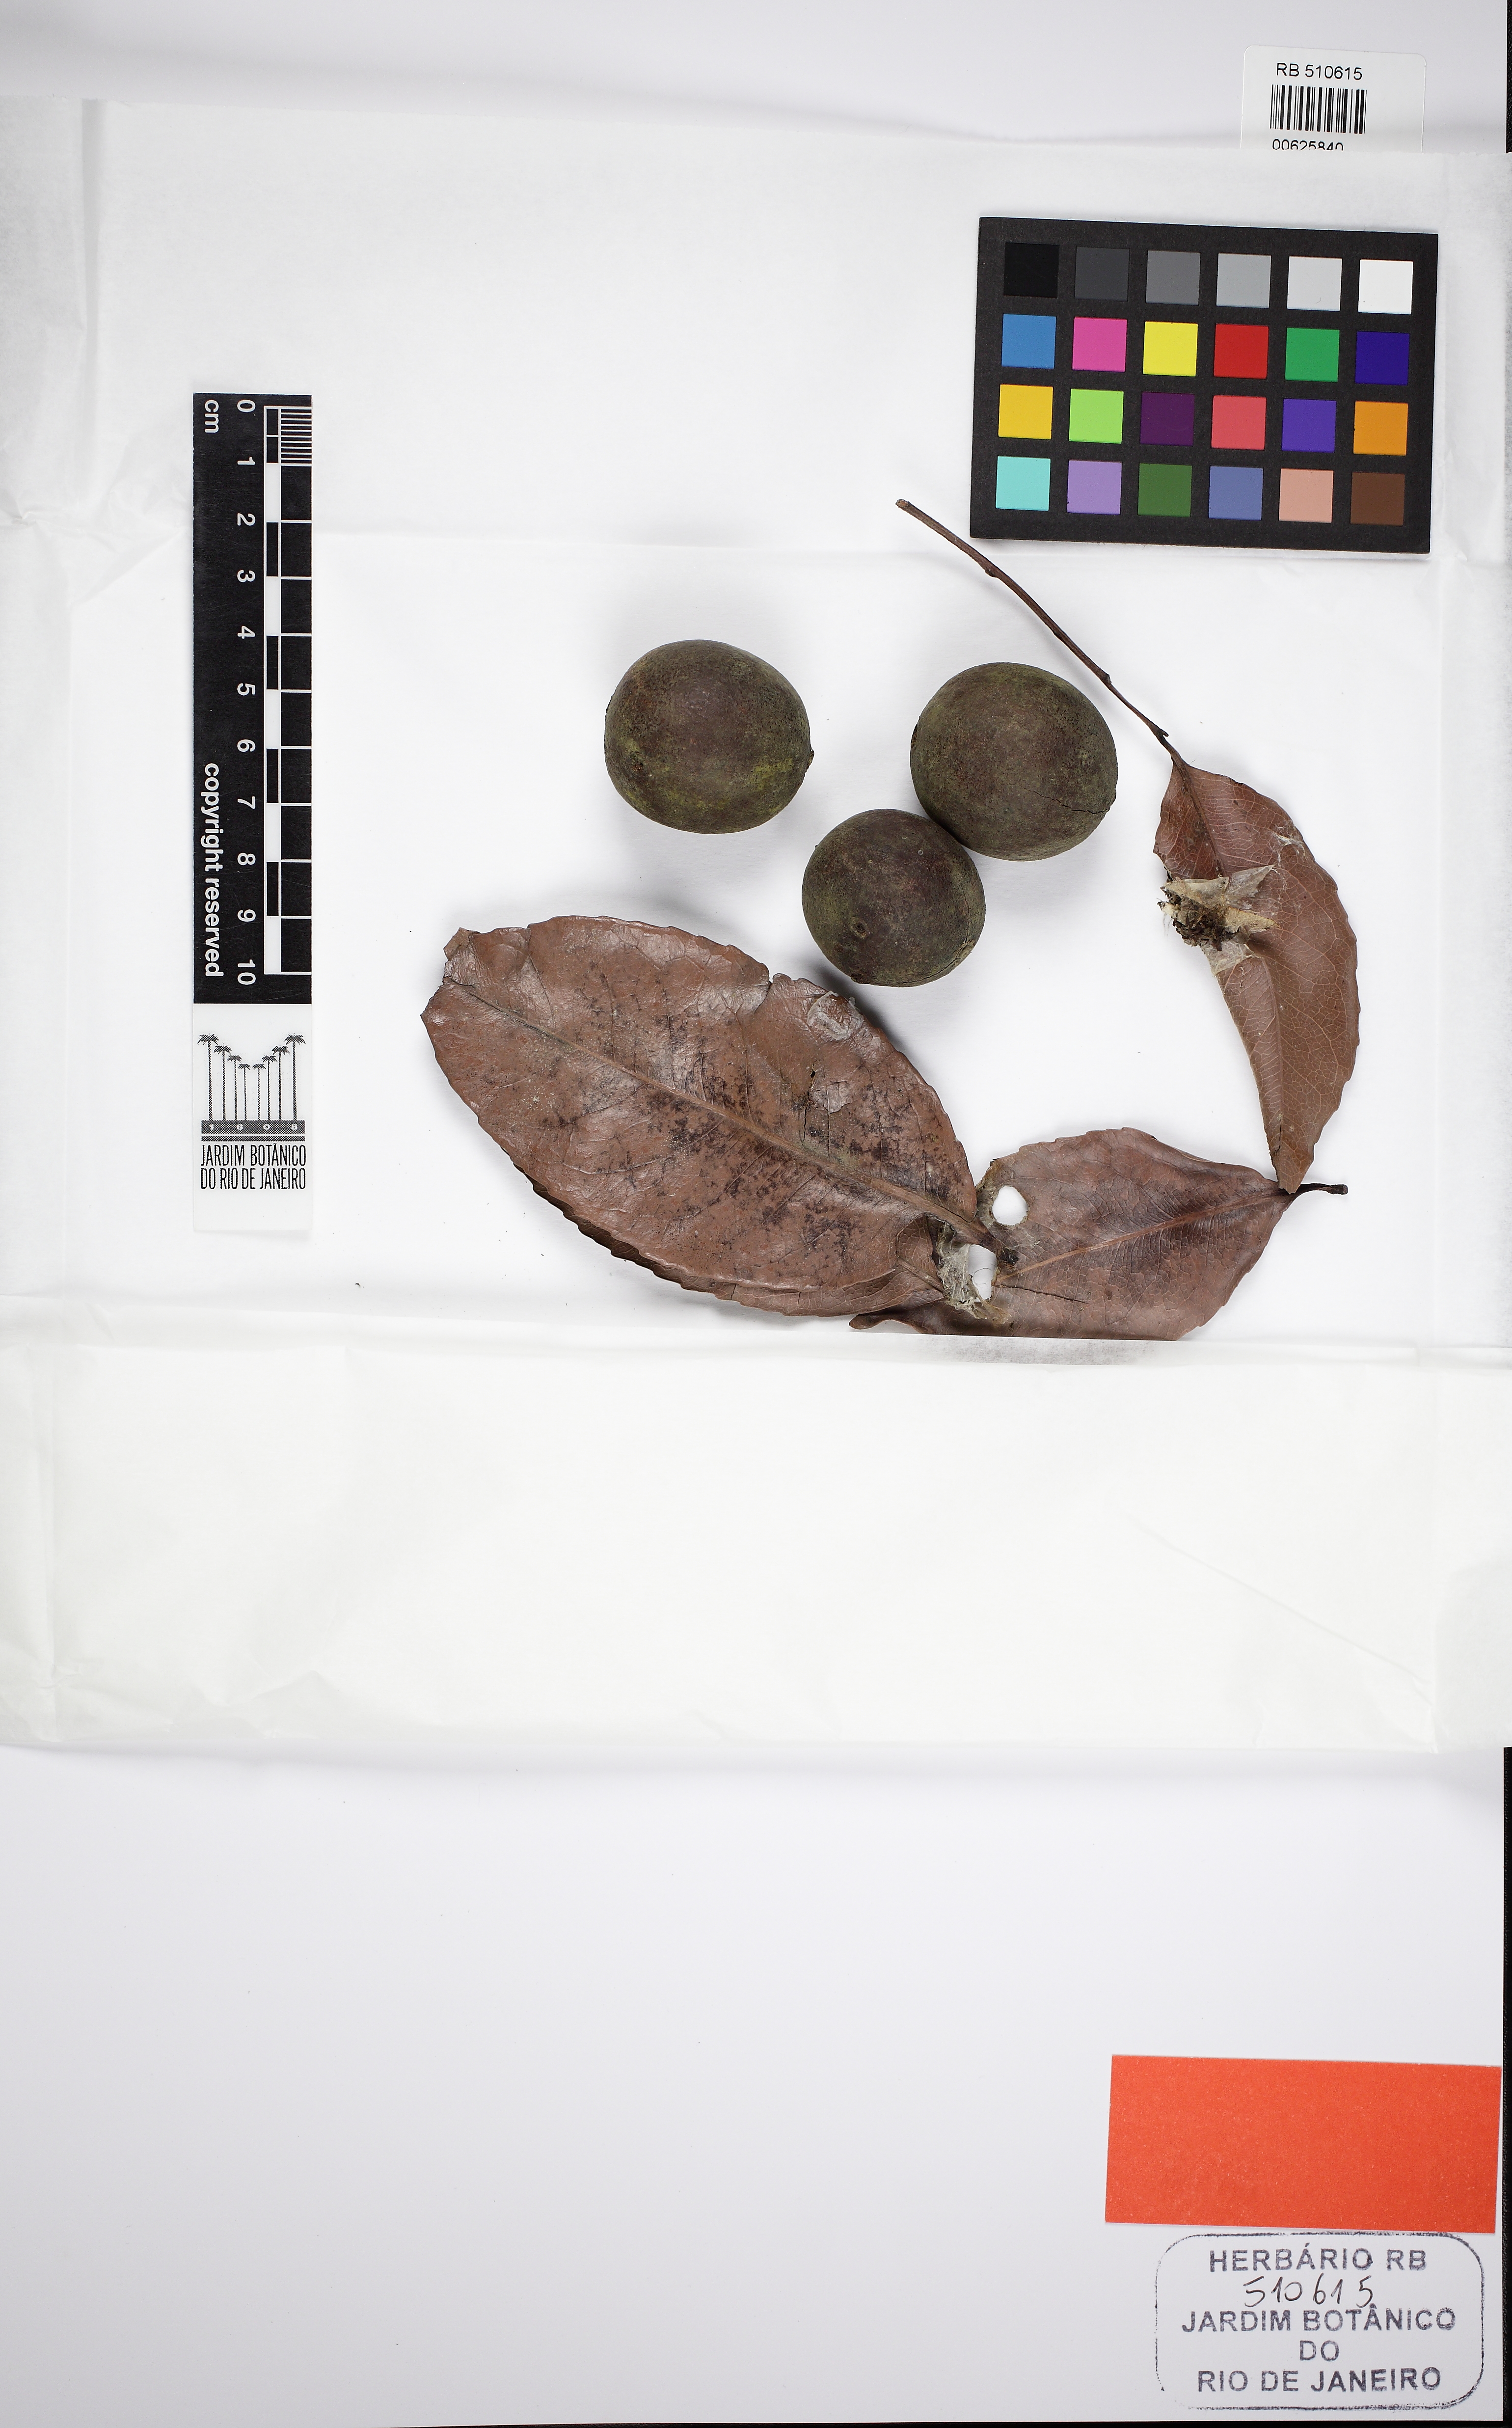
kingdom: Plantae
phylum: Tracheophyta
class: Magnoliopsida
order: Malpighiales
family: Humiriaceae
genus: Humiriastrum
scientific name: Humiriastrum mussunungense
